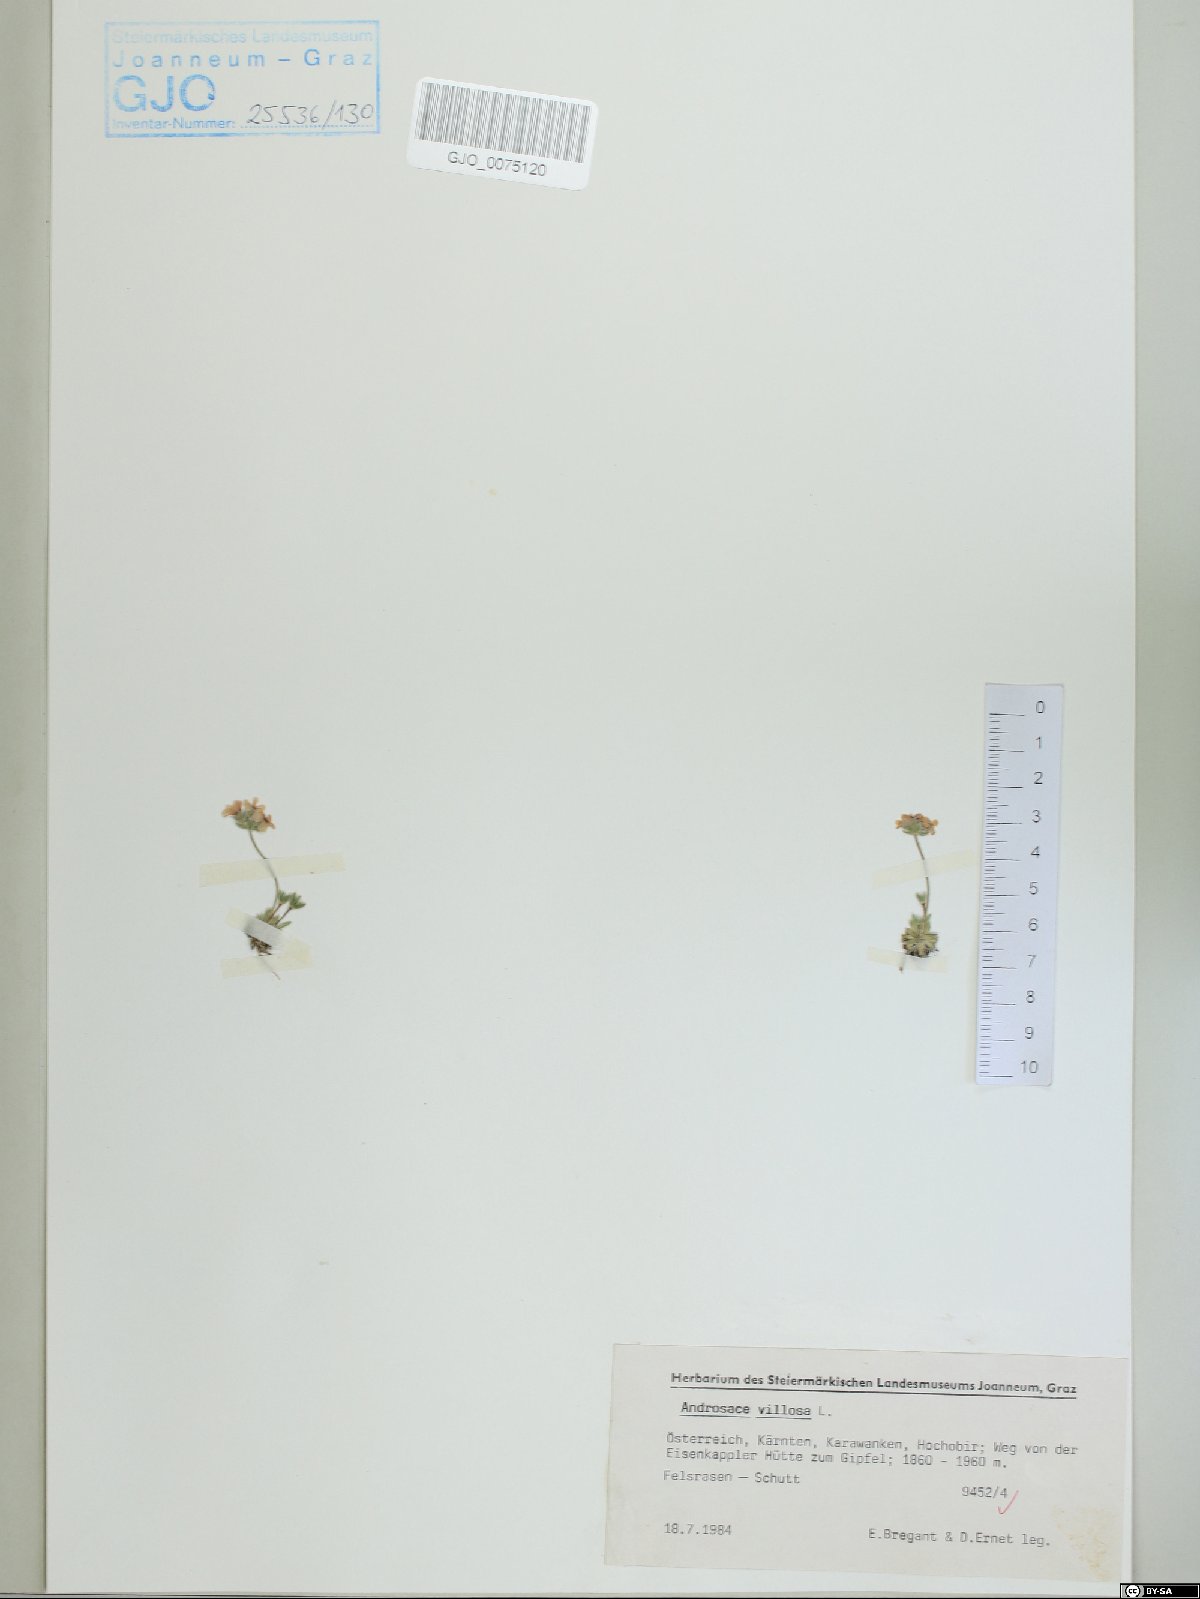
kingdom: Plantae
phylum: Tracheophyta
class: Magnoliopsida
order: Ericales
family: Primulaceae
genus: Androsace
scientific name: Androsace villosa
